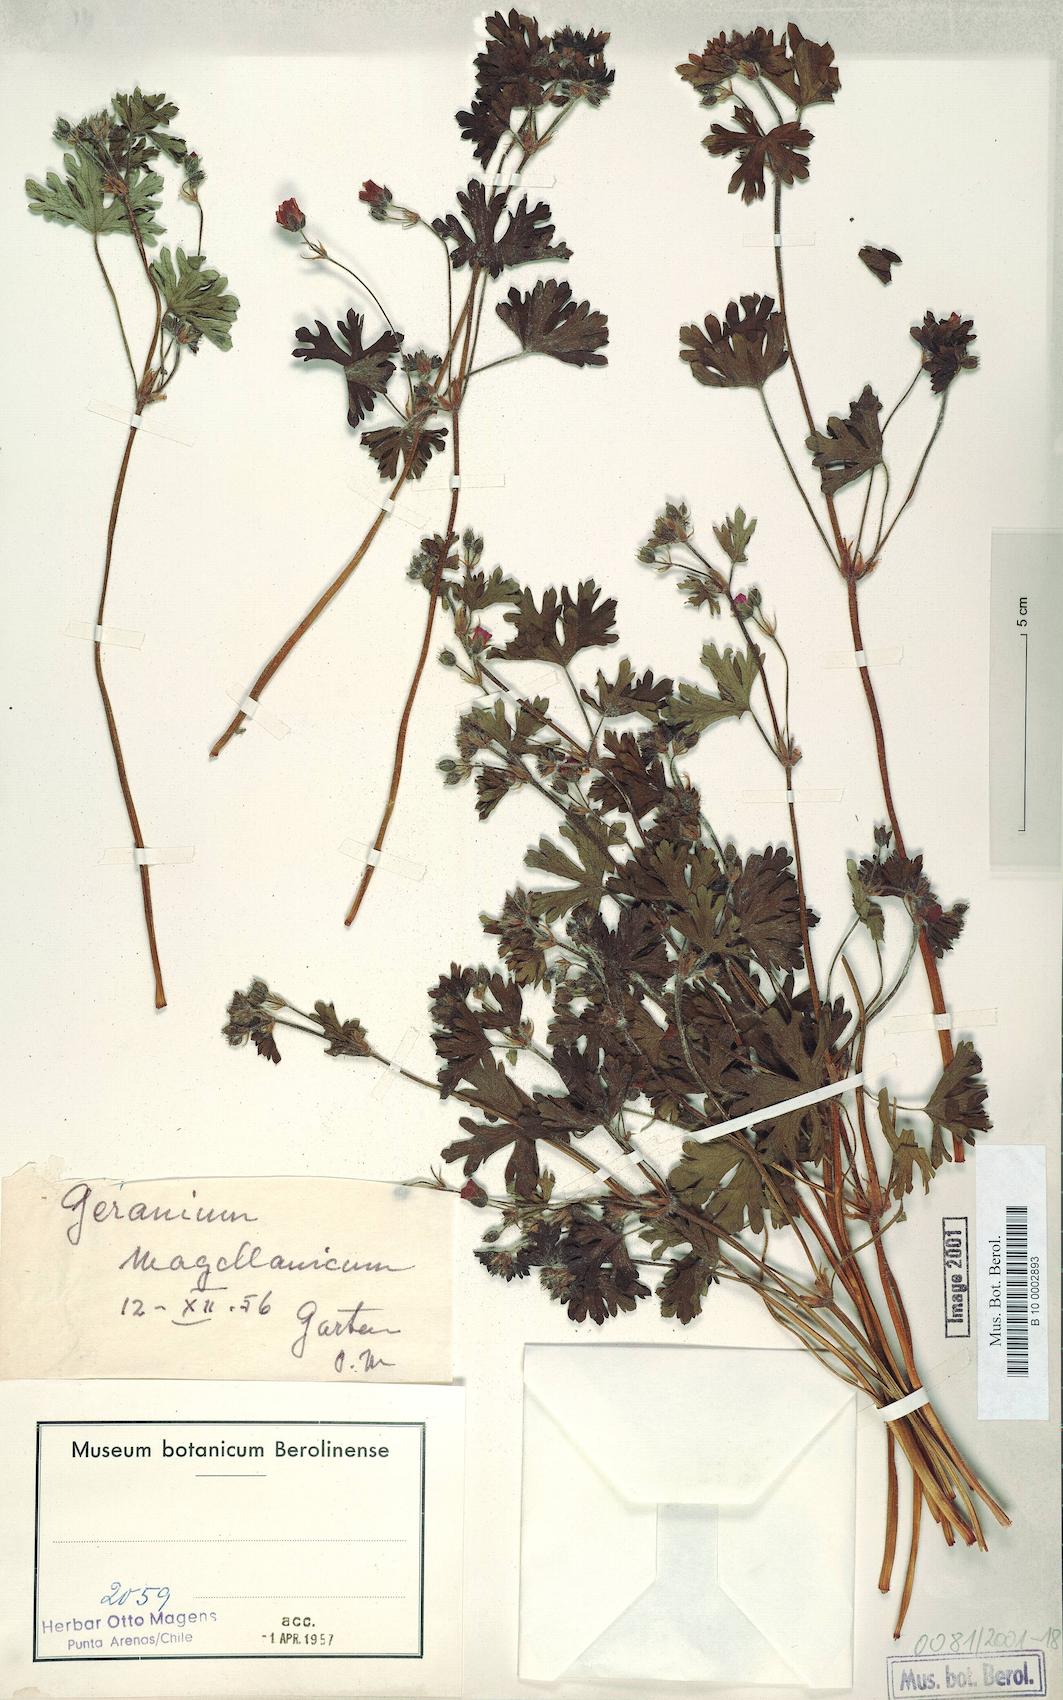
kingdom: Plantae
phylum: Tracheophyta
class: Magnoliopsida
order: Geraniales
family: Geraniaceae
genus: Geranium
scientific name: Geranium magellanicum
